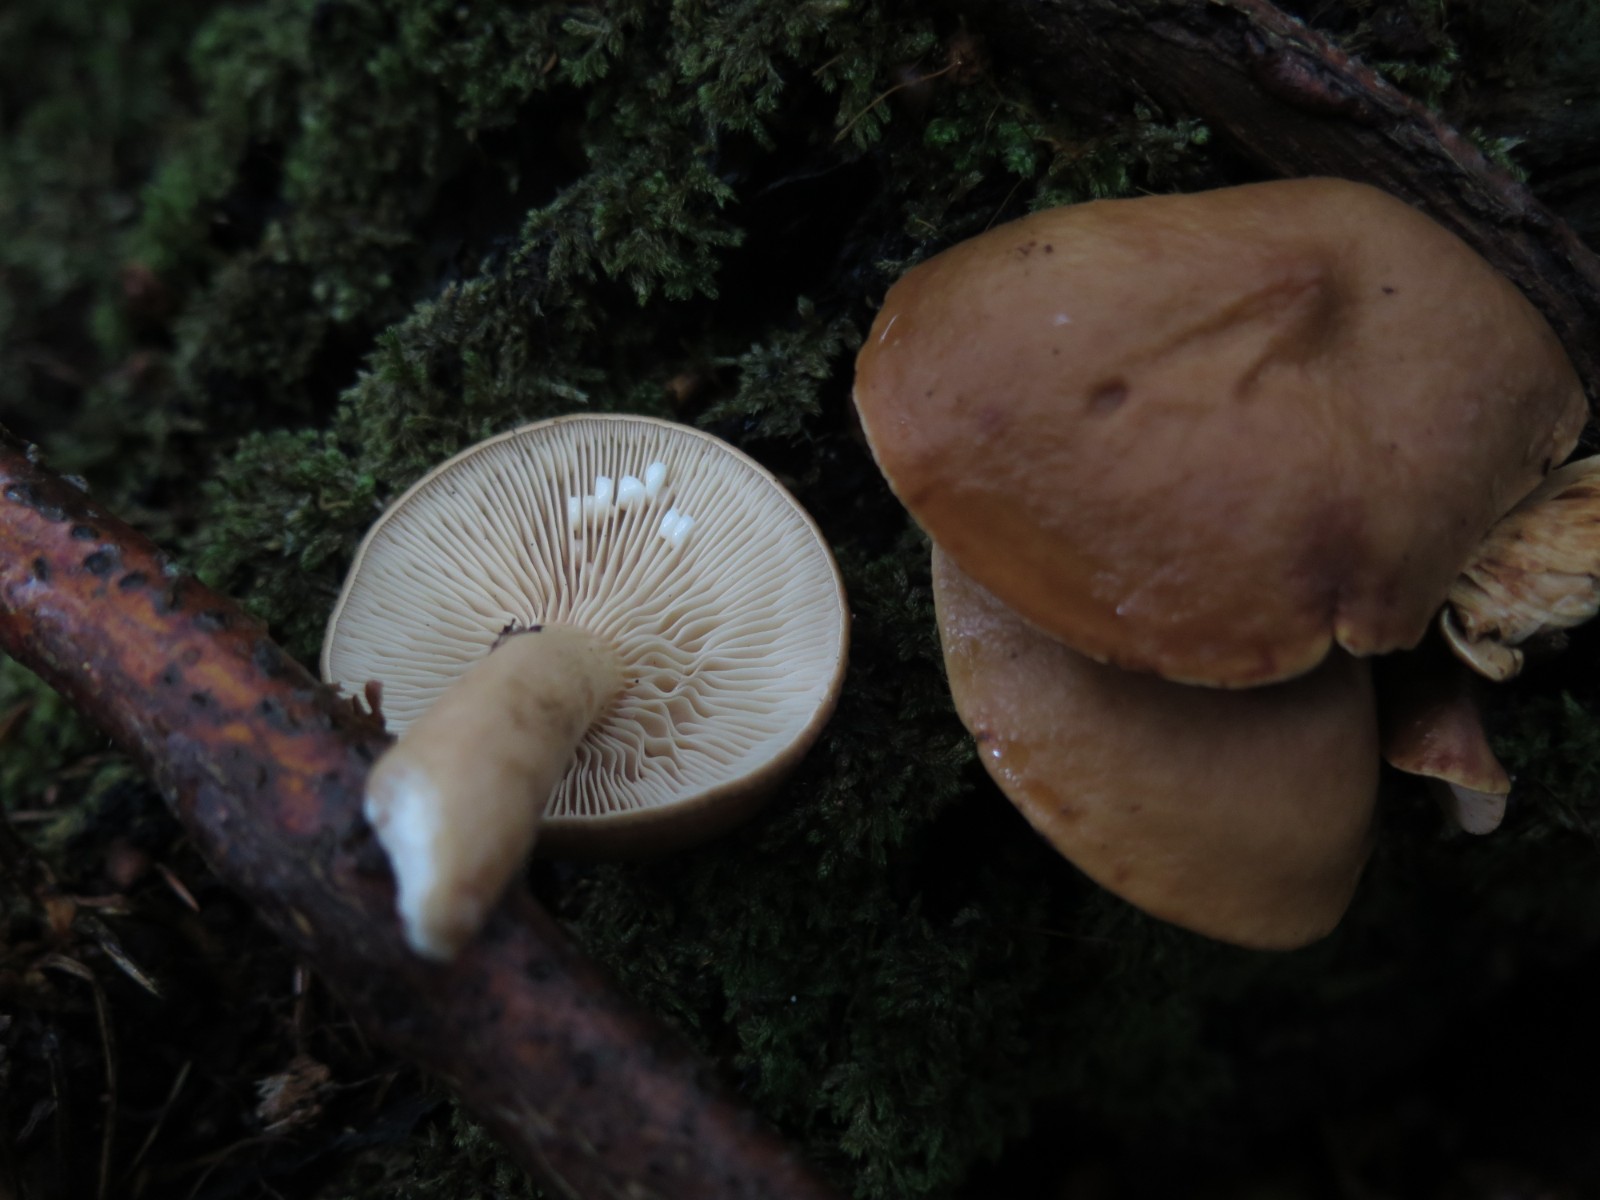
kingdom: Fungi
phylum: Basidiomycota
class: Agaricomycetes
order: Russulales
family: Russulaceae
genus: Lactarius
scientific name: Lactarius subdulcis
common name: sødlig mælkehat
